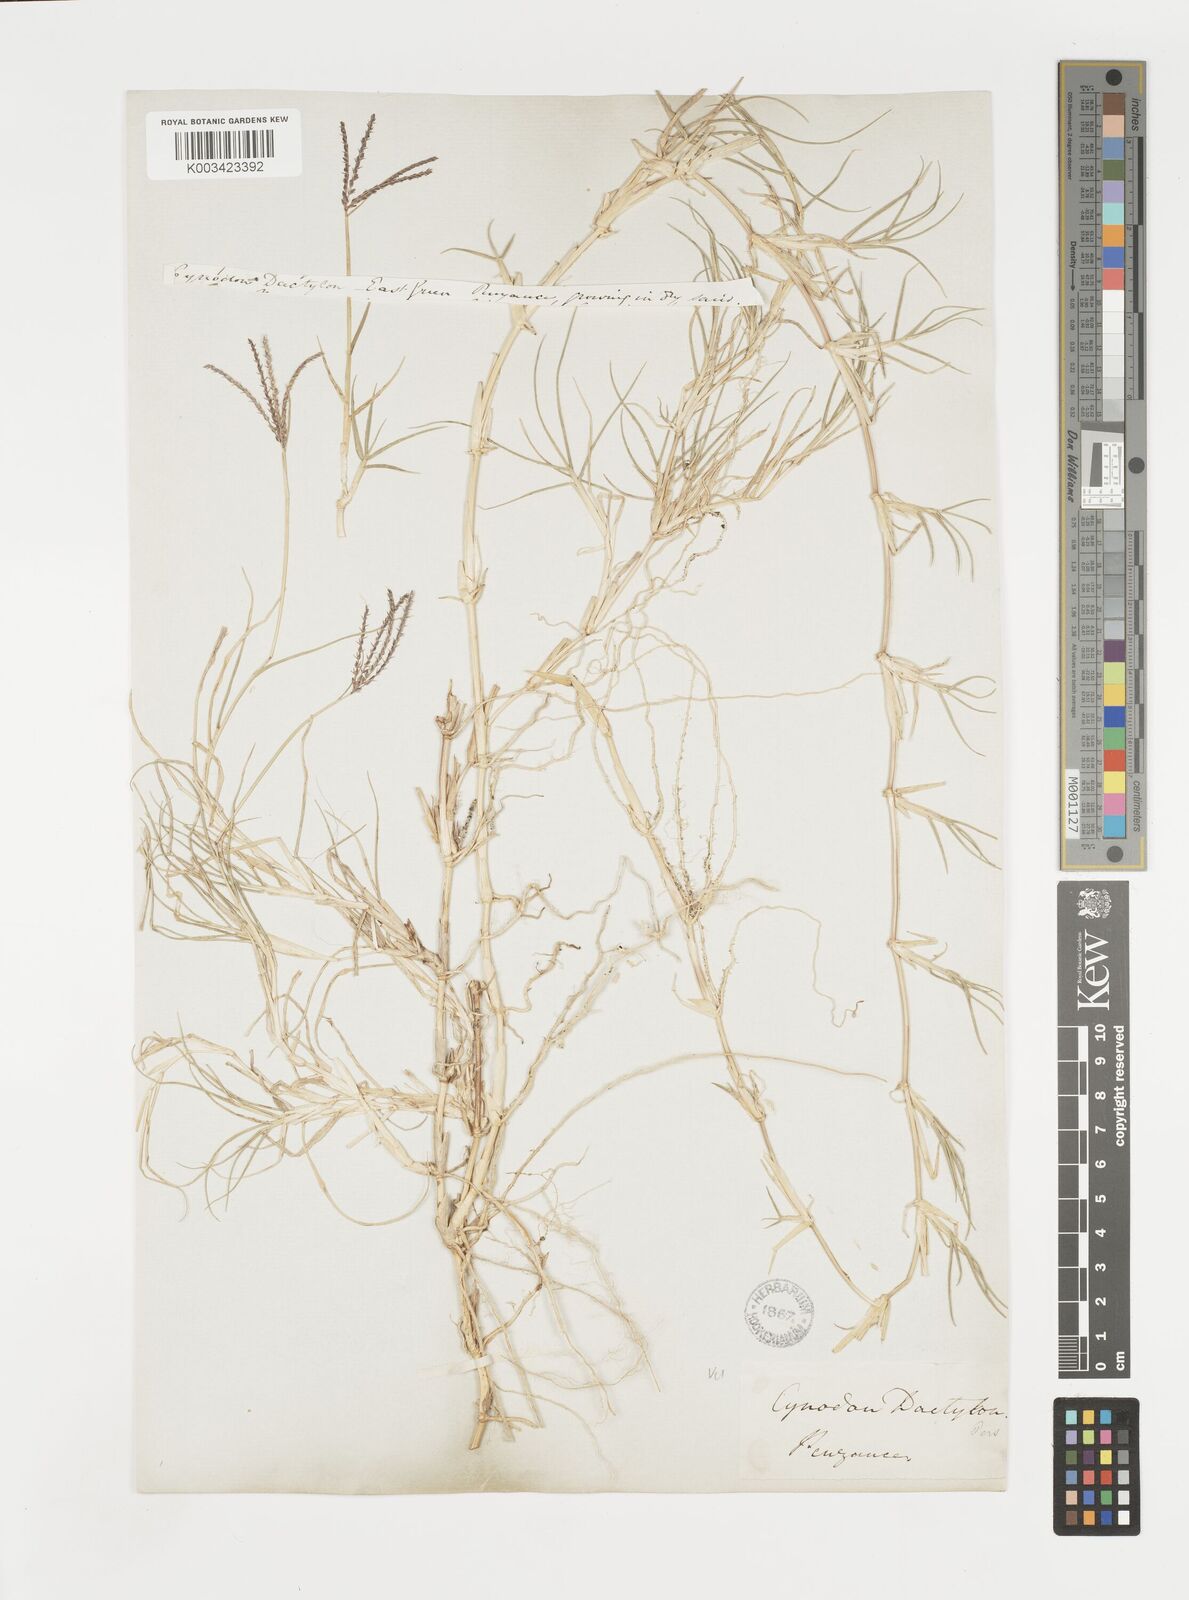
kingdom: Plantae
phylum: Tracheophyta
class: Liliopsida
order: Poales
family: Poaceae
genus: Cynodon
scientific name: Cynodon dactylon
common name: Bermuda grass
